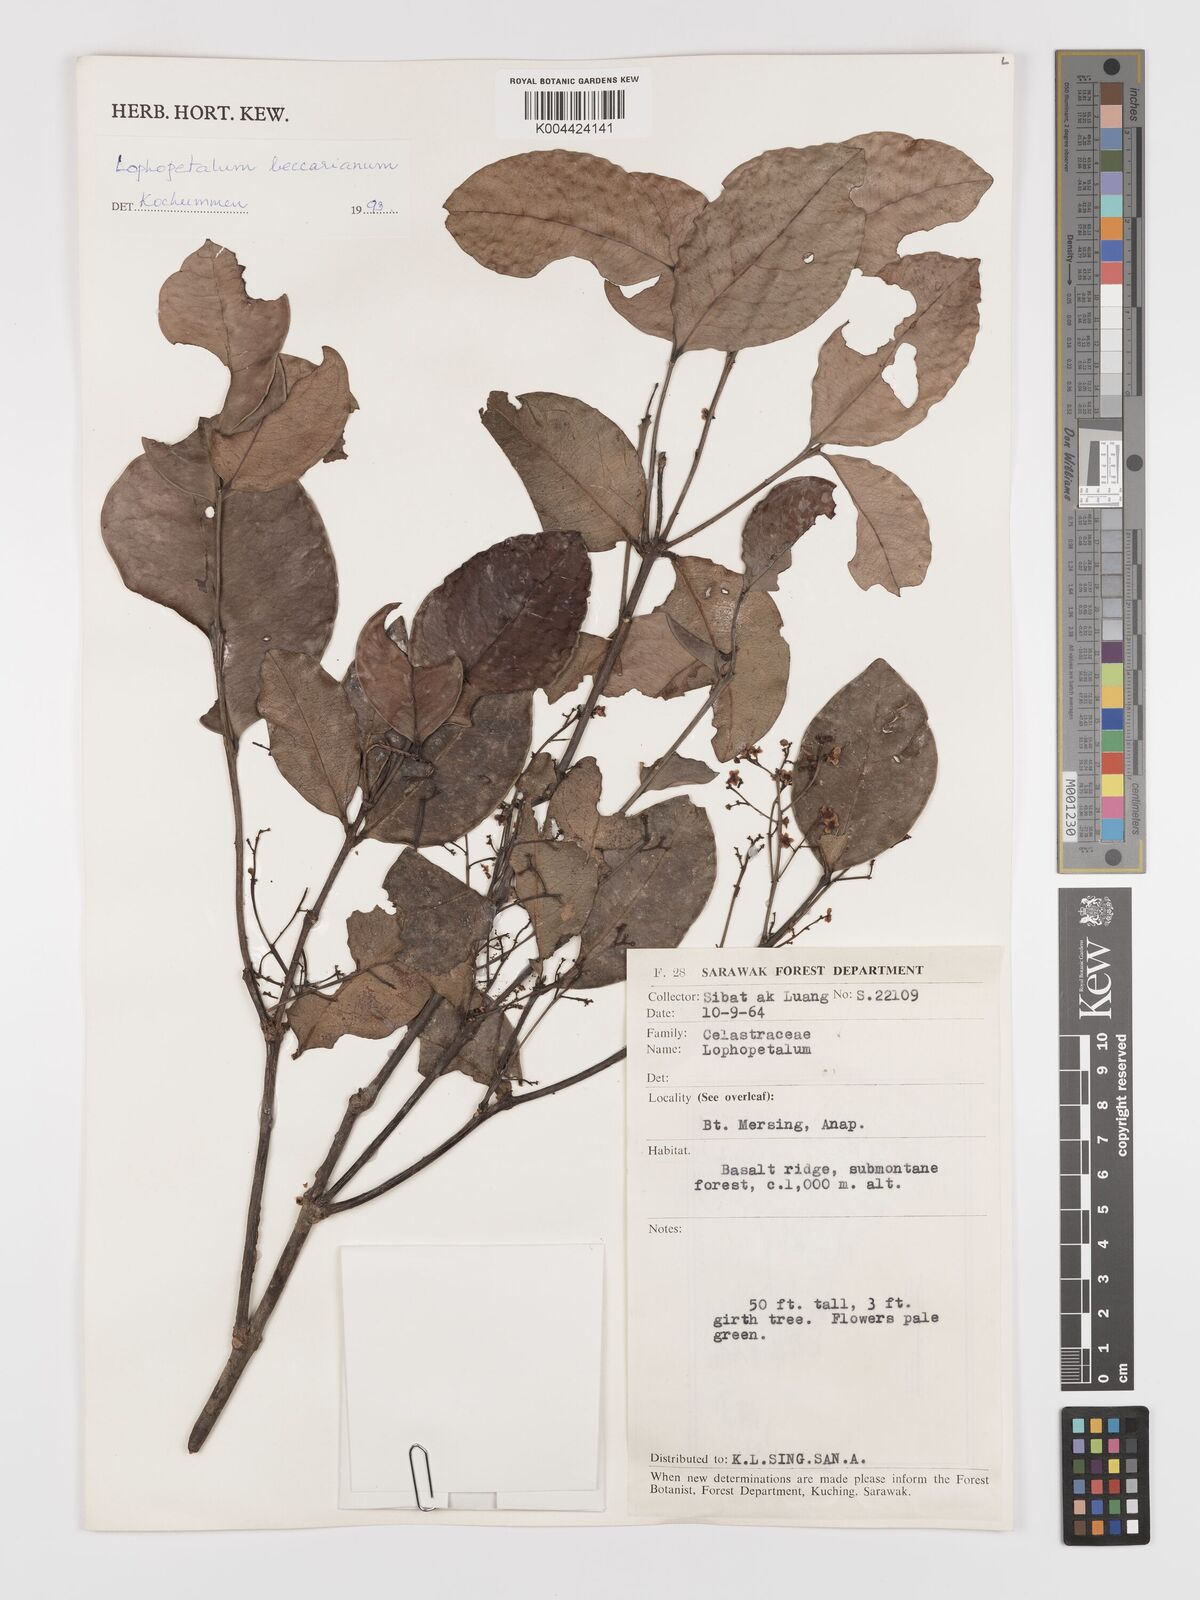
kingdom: Plantae
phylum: Tracheophyta
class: Magnoliopsida
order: Celastrales
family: Celastraceae
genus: Lophopetalum
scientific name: Lophopetalum beccarianum
